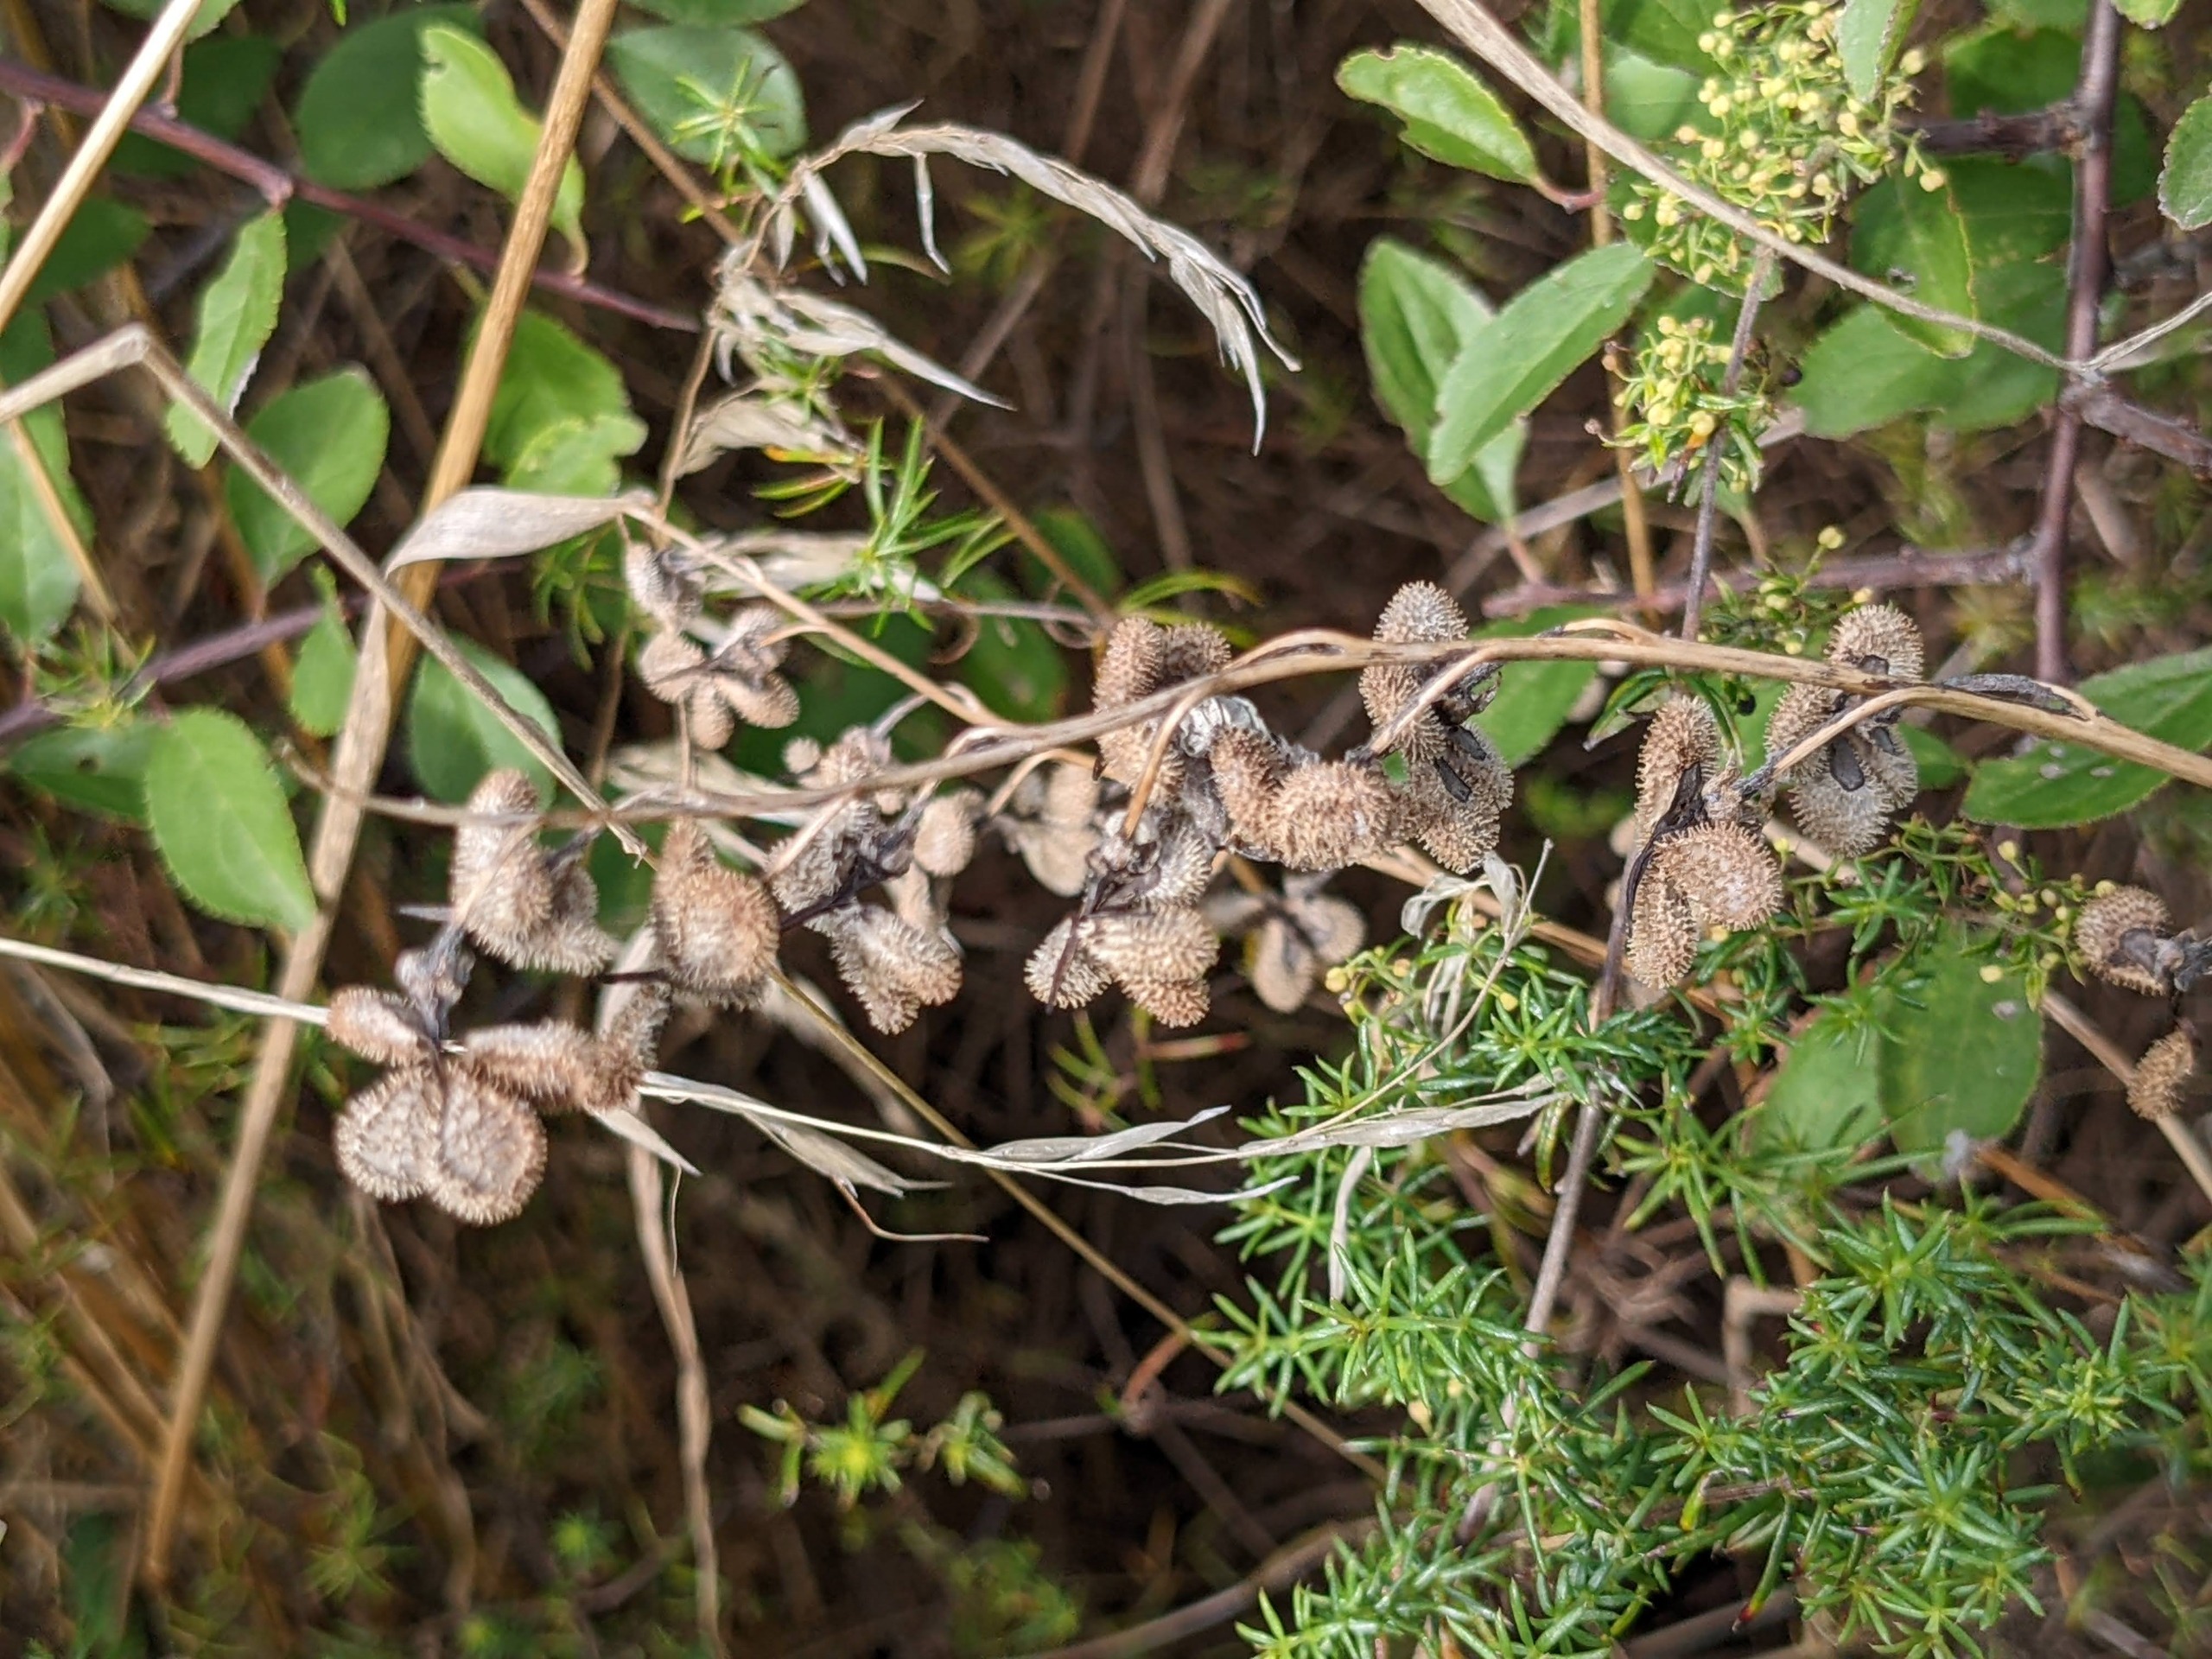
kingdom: Plantae
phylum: Tracheophyta
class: Magnoliopsida
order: Boraginales
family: Boraginaceae
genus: Cynoglossum
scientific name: Cynoglossum officinale
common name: Hundetunge
